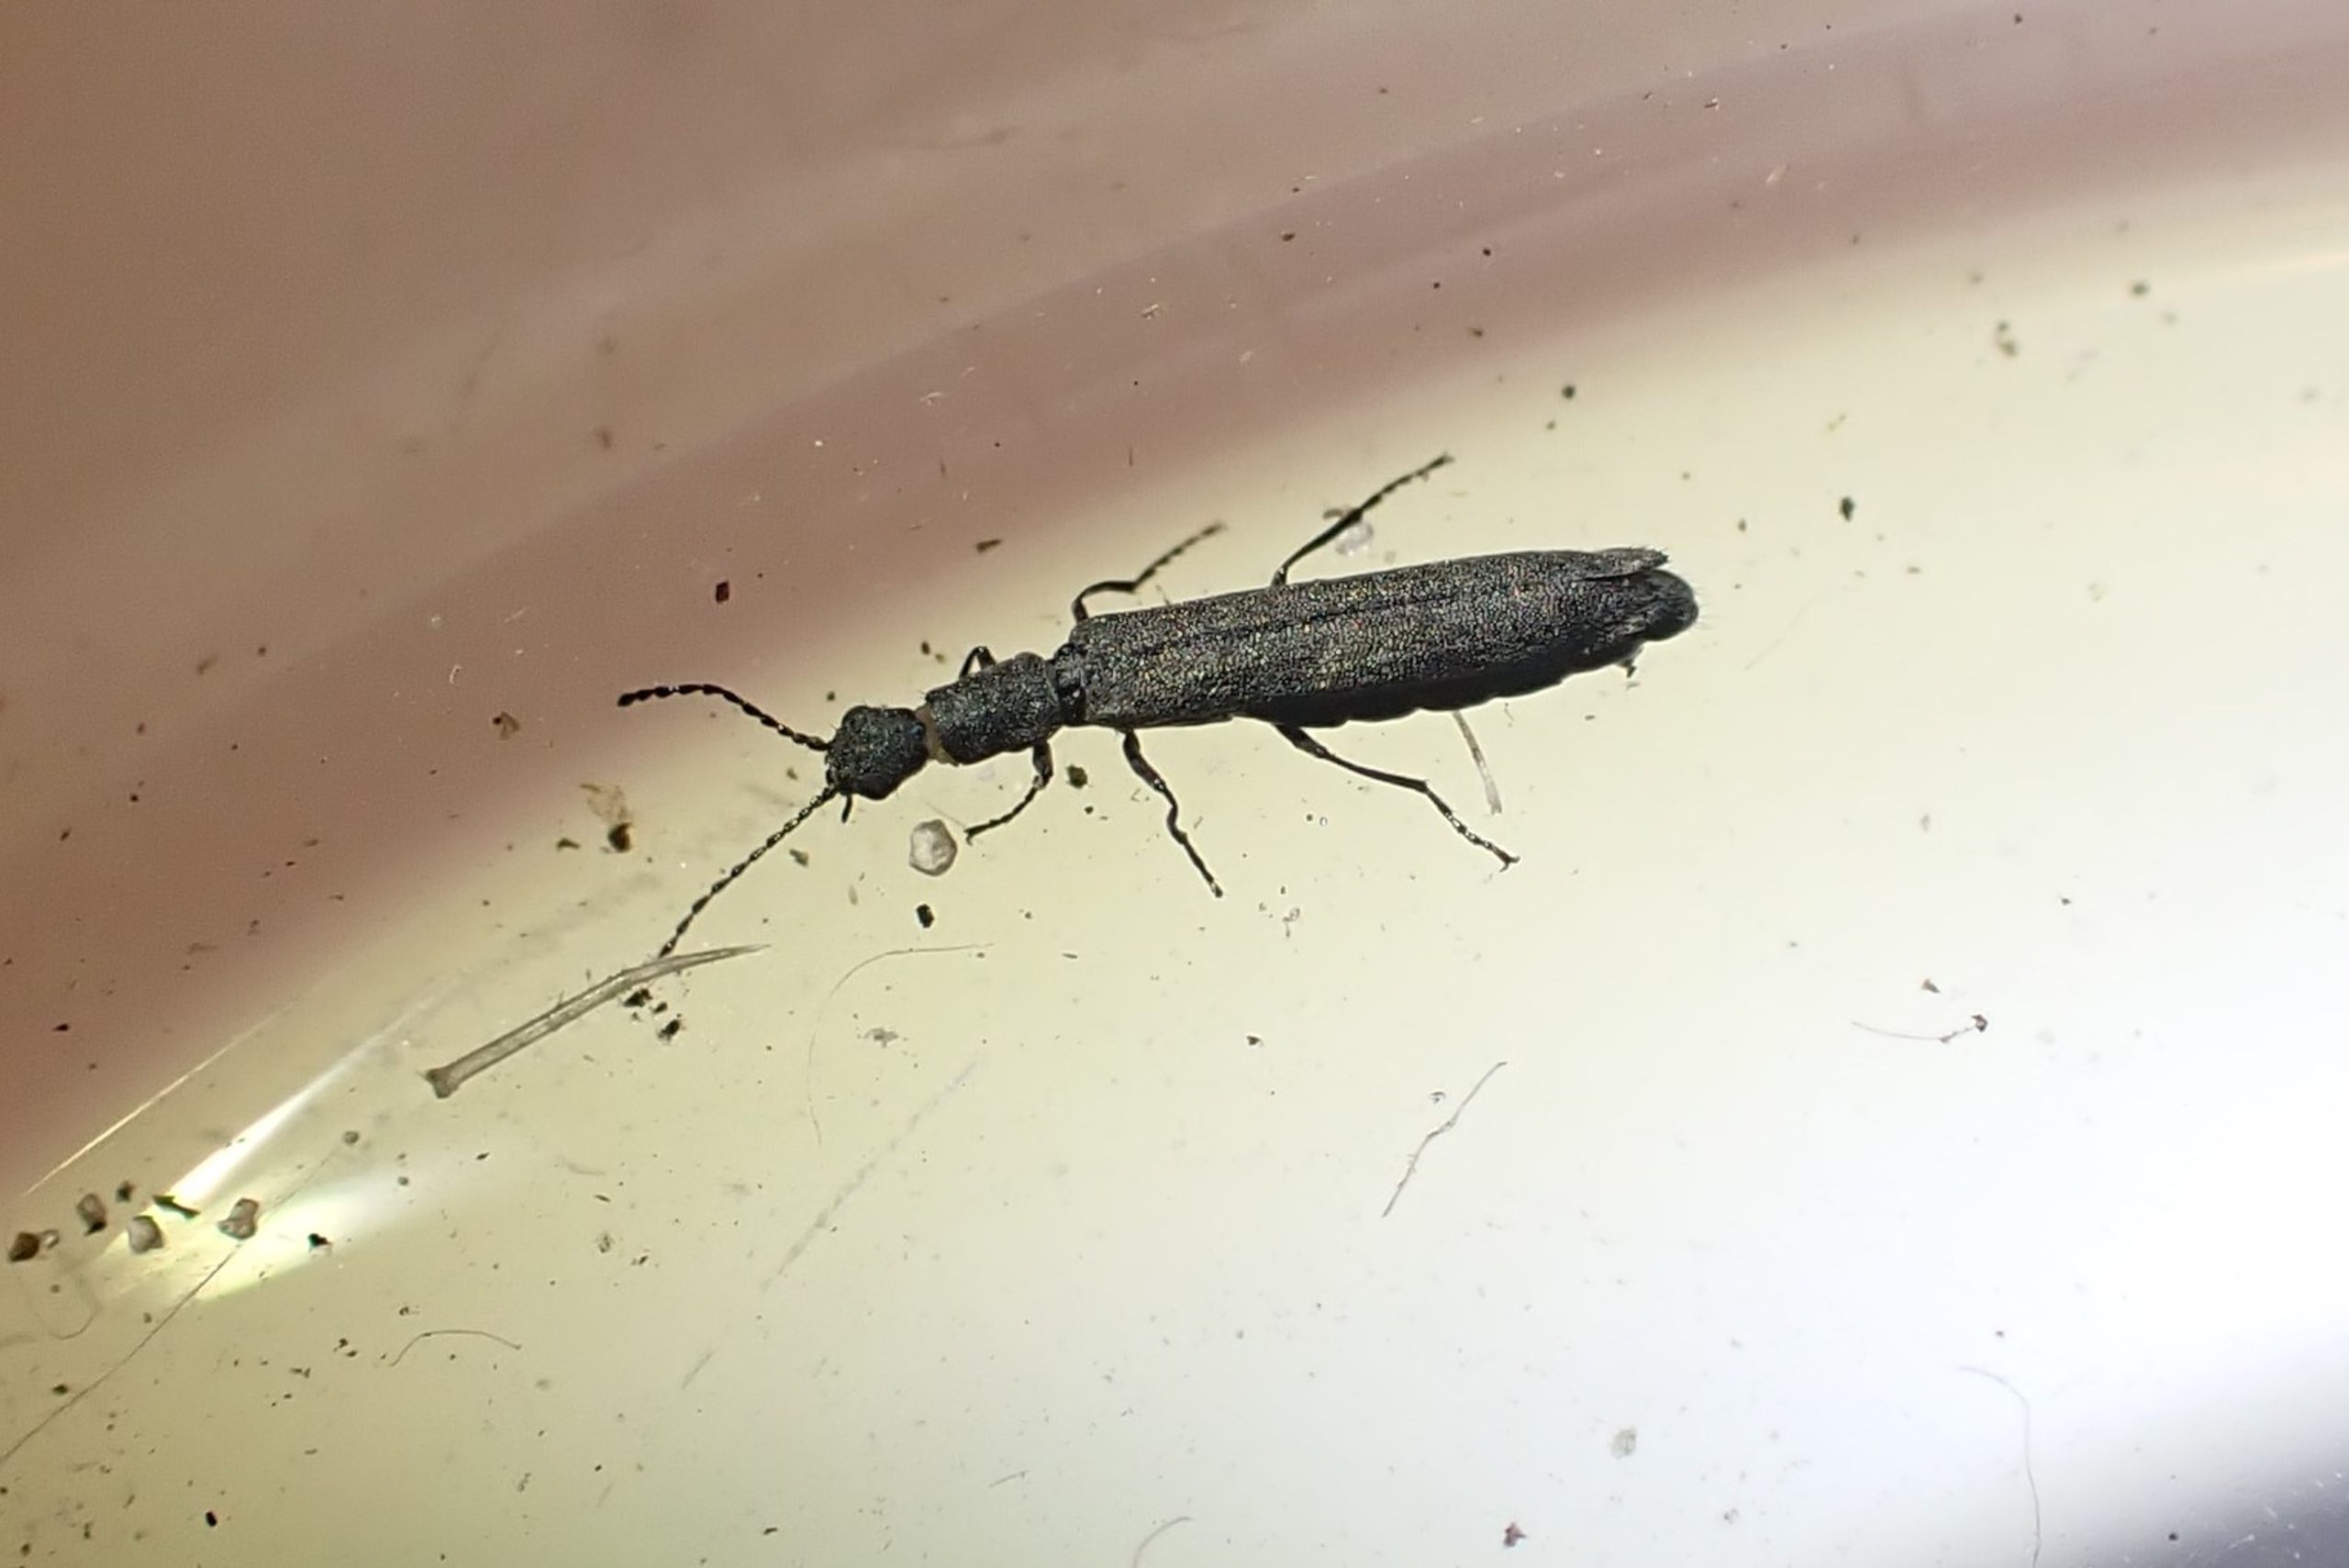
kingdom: Animalia
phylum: Arthropoda
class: Insecta
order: Coleoptera
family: Melyridae
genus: Dolichosoma
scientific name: Dolichosoma lineare
